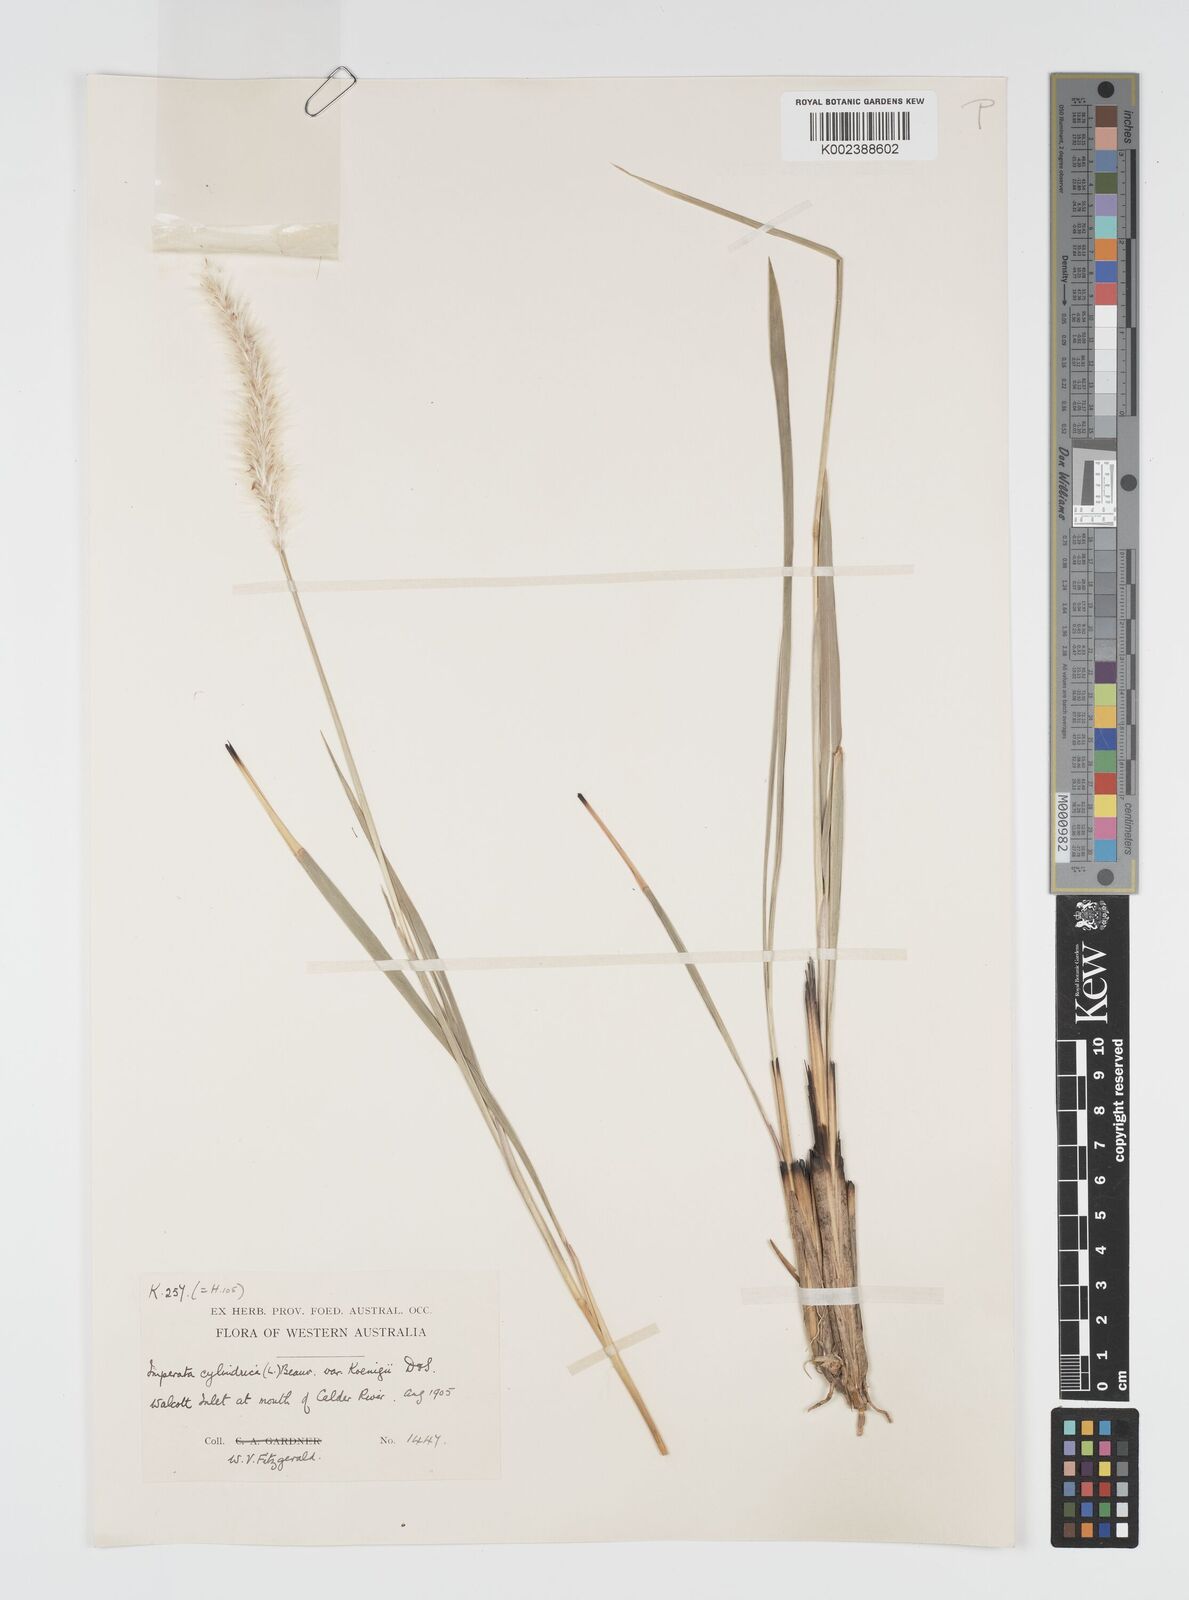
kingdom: Plantae
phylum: Tracheophyta
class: Liliopsida
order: Poales
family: Poaceae
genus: Imperata
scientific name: Imperata cylindrica
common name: Cogongrass
